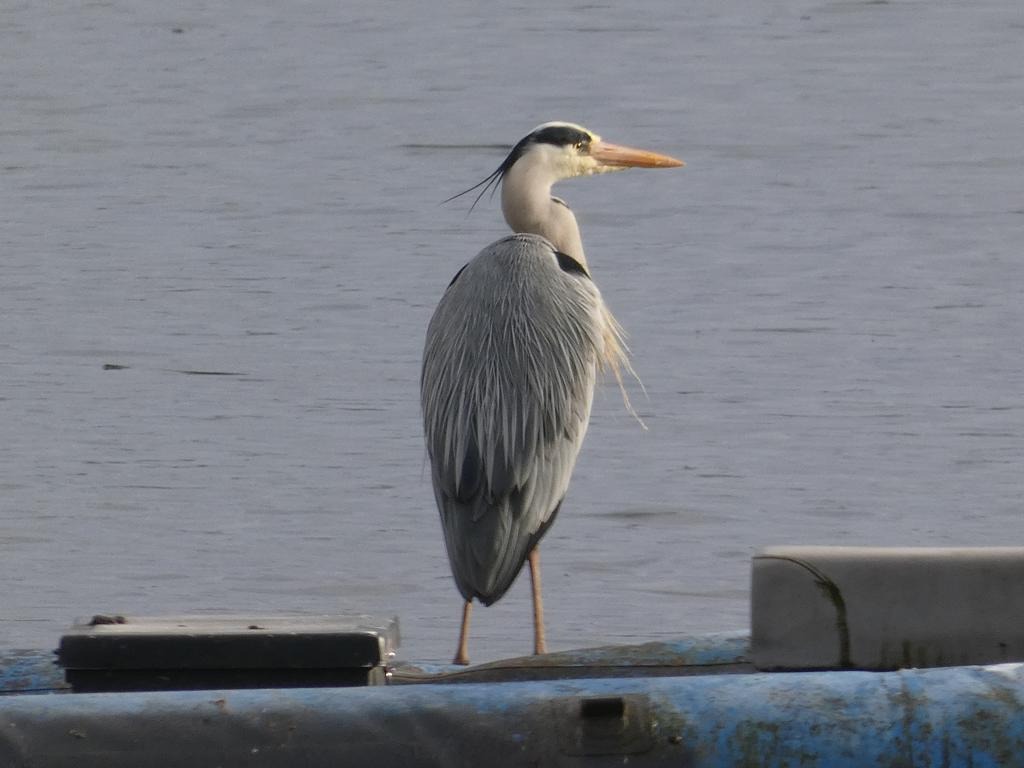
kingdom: Animalia
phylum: Chordata
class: Aves
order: Pelecaniformes
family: Ardeidae
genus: Ardea
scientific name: Ardea cinerea
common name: Fiskehejre
